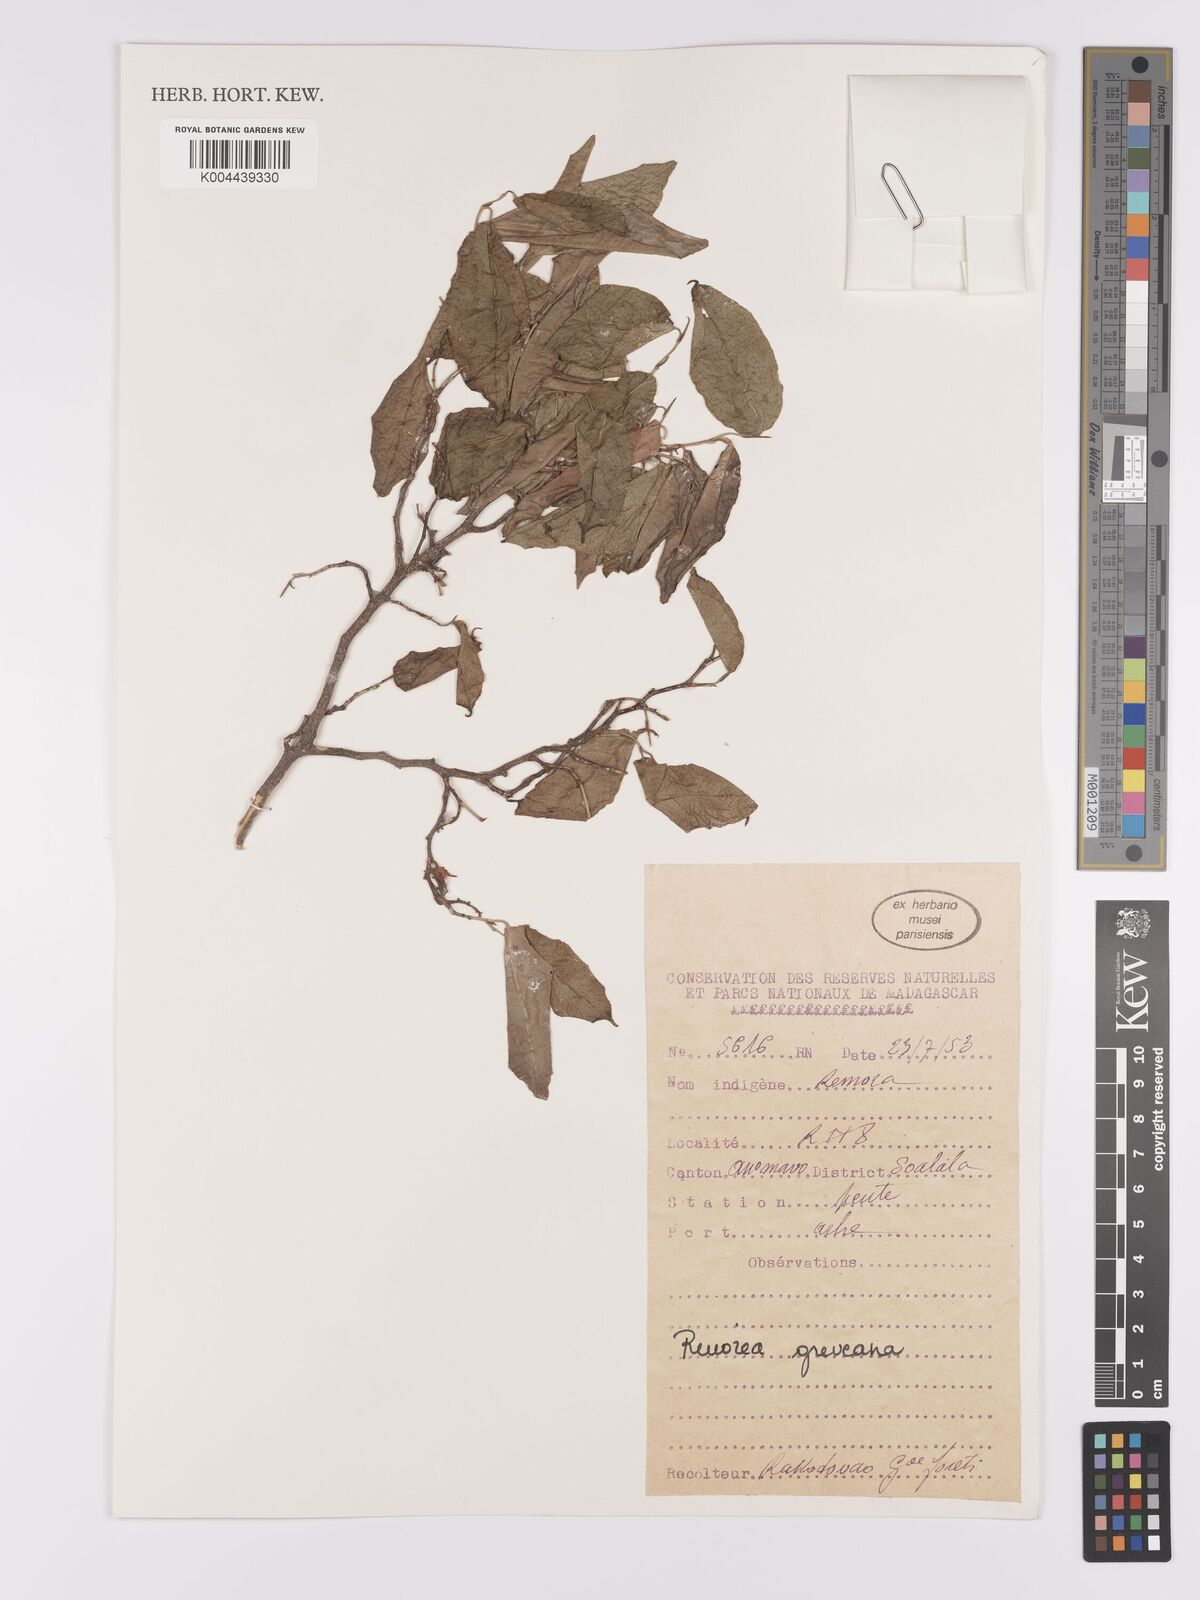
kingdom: Plantae
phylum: Tracheophyta
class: Magnoliopsida
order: Malpighiales
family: Violaceae
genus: Rinorea
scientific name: Rinorea greveana
